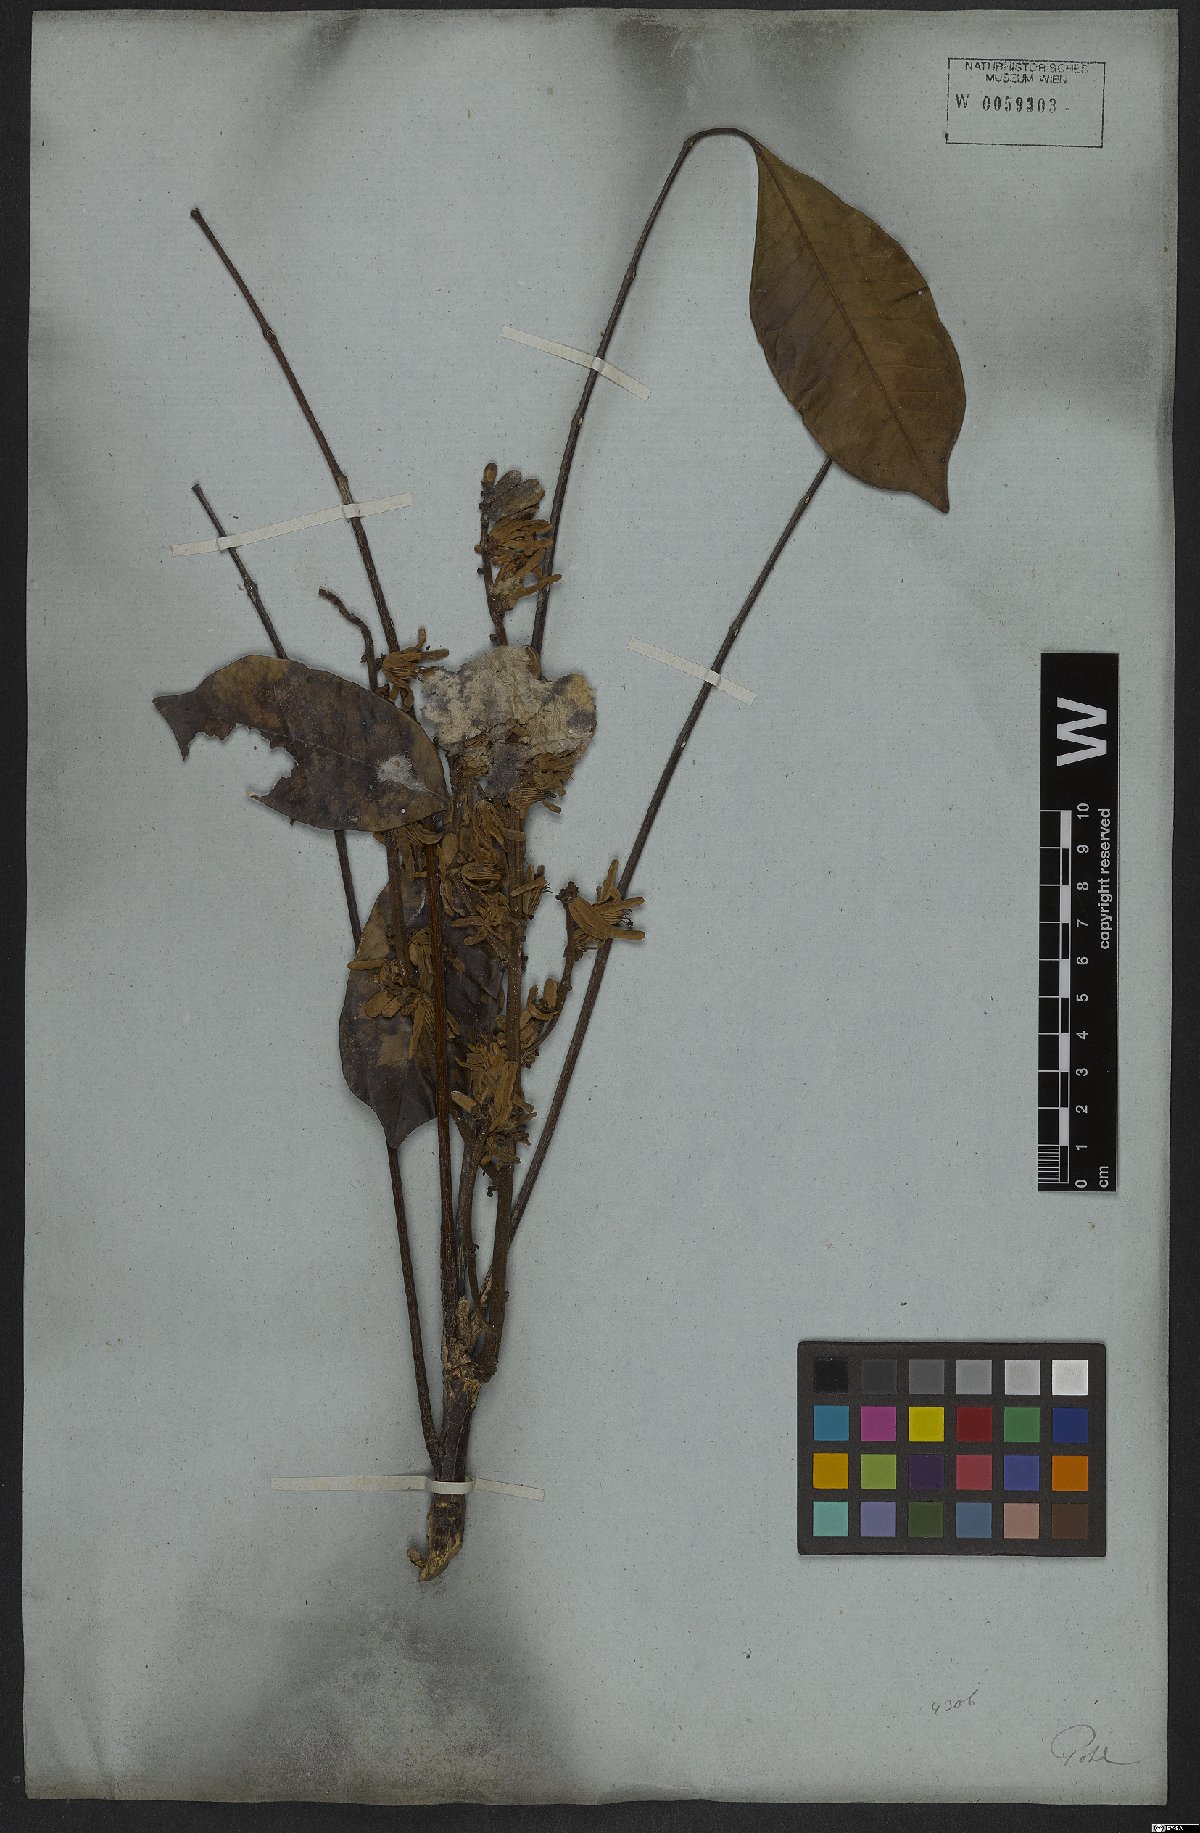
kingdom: Plantae
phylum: Tracheophyta
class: Magnoliopsida
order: Sapindales
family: Simaroubaceae
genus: Homalolepis
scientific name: Homalolepis maiana
